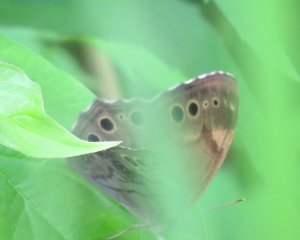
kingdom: Animalia
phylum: Arthropoda
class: Insecta
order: Lepidoptera
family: Nymphalidae
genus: Lethe
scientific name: Lethe anthedon
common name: Northern Pearly-Eye
